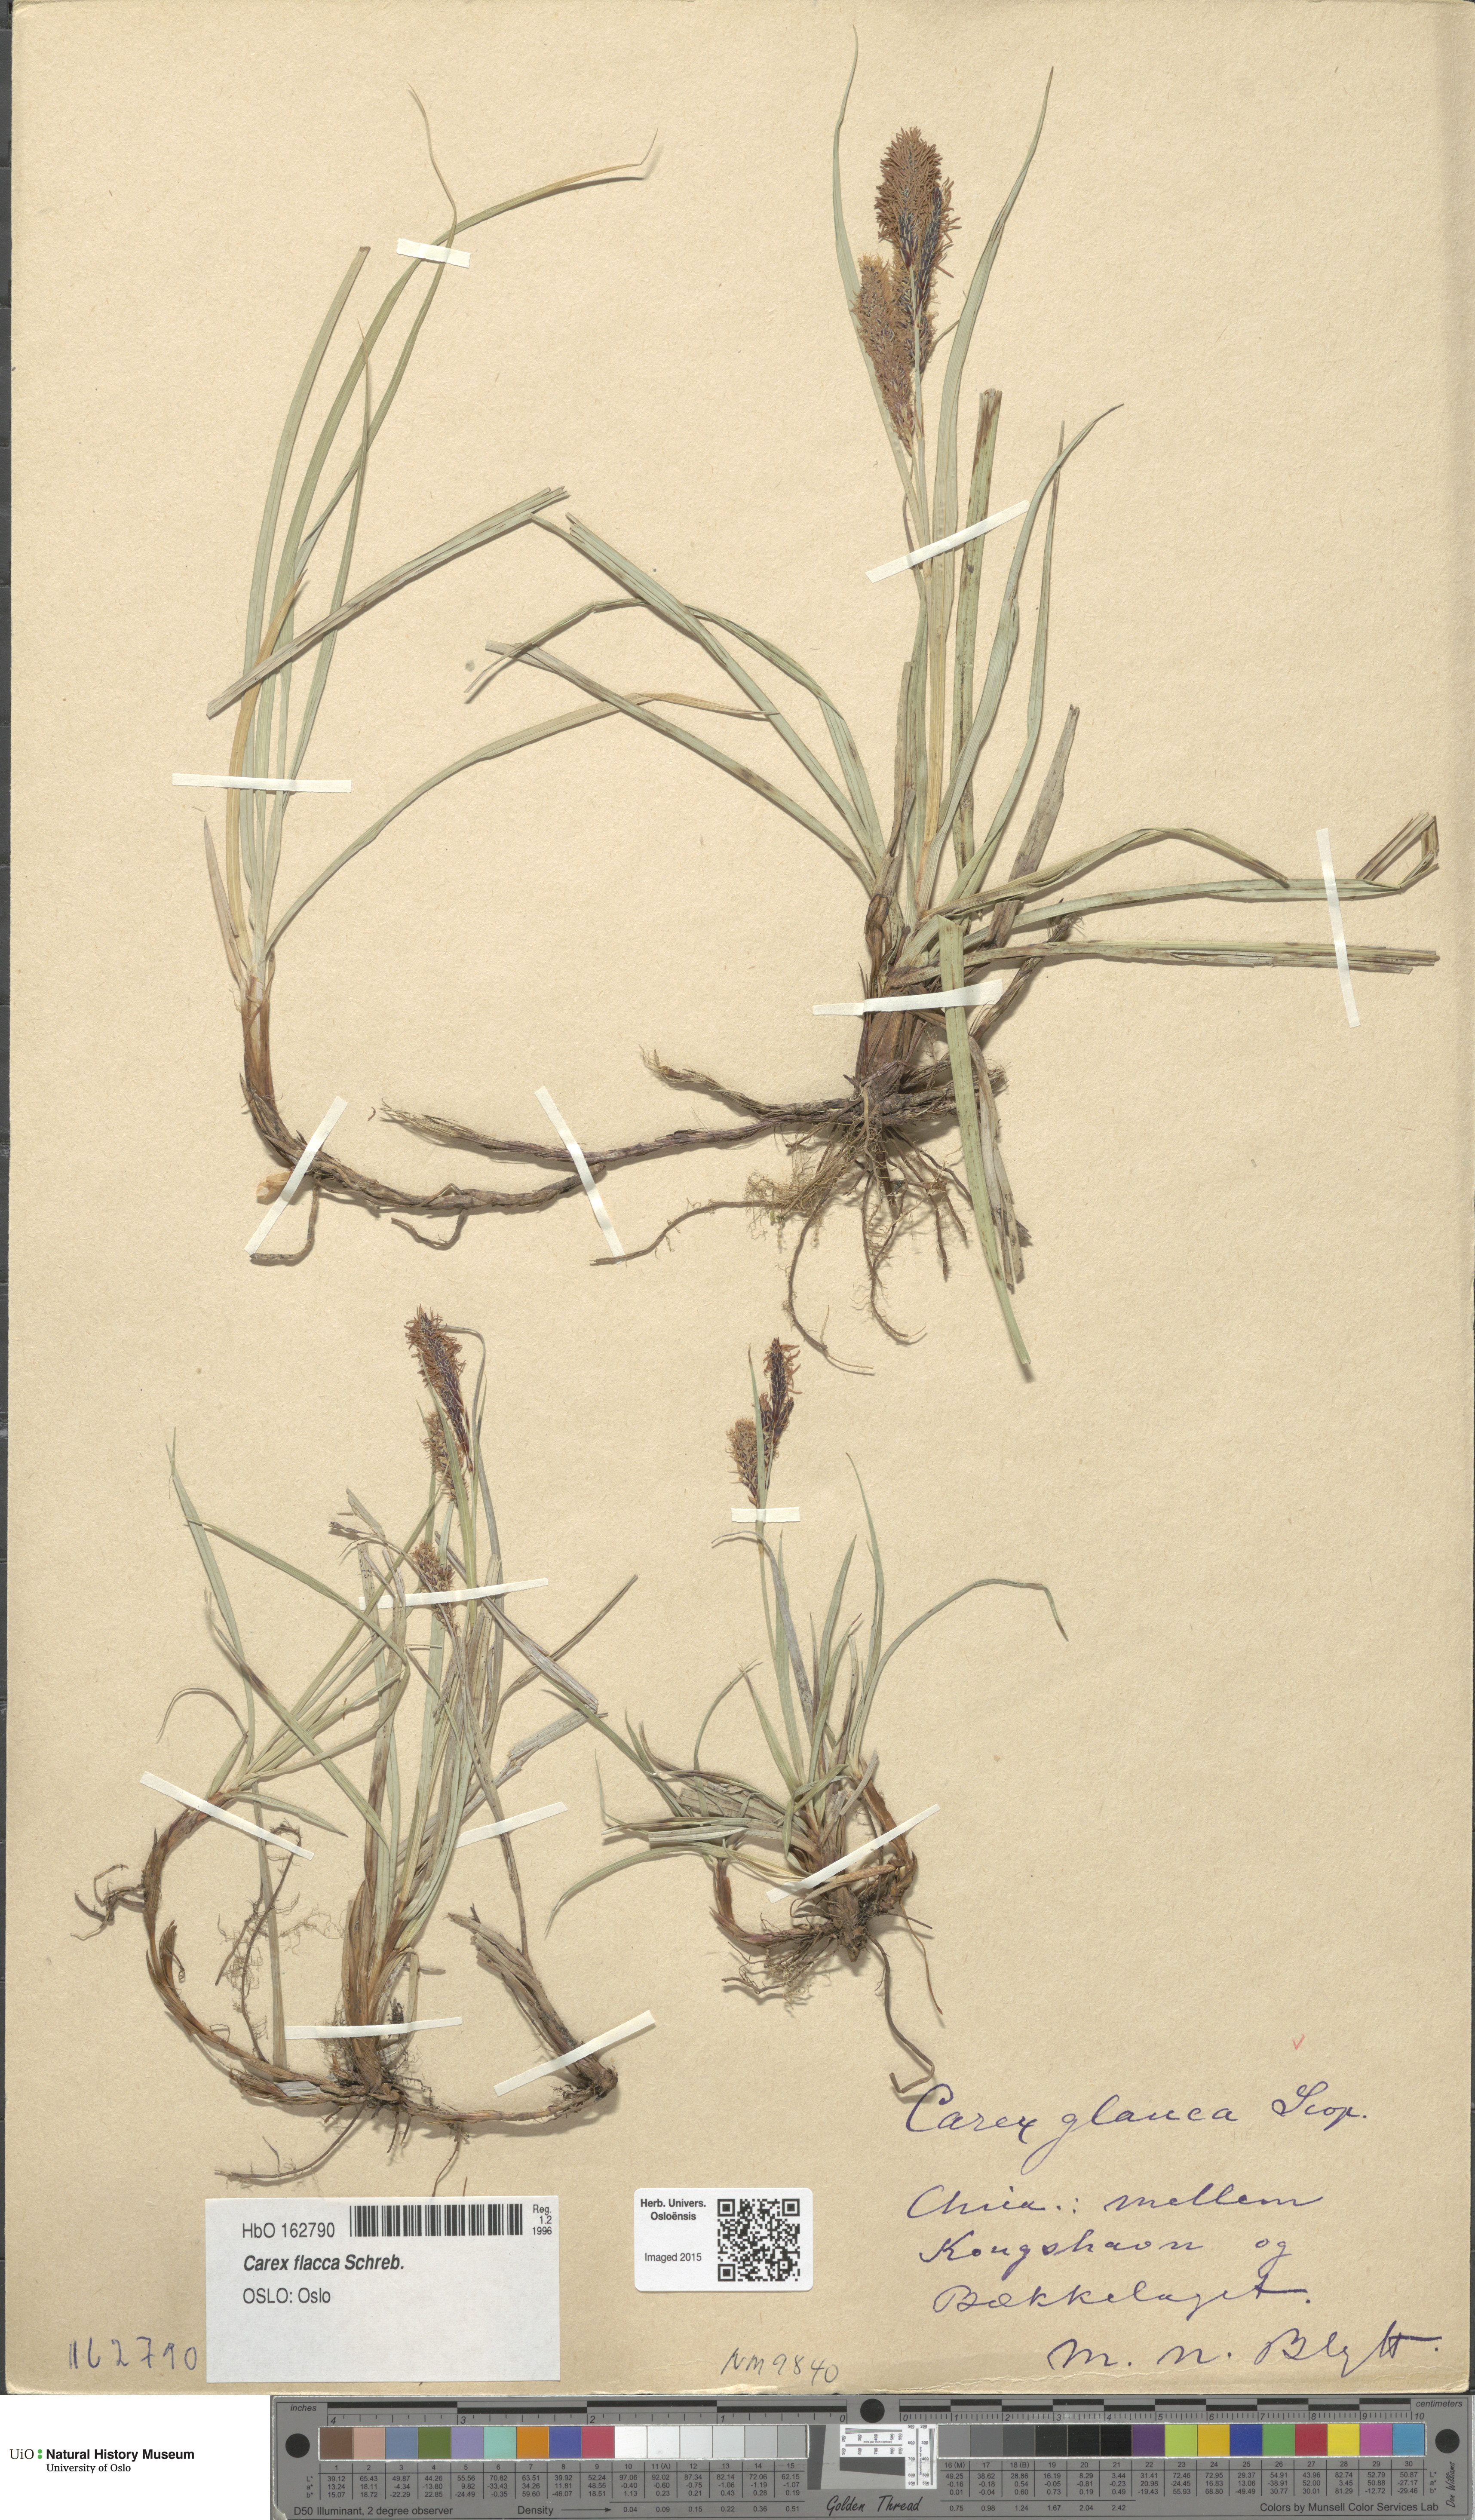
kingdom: Plantae
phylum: Tracheophyta
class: Liliopsida
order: Poales
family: Cyperaceae
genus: Carex
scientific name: Carex flacca
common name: Glaucous sedge
